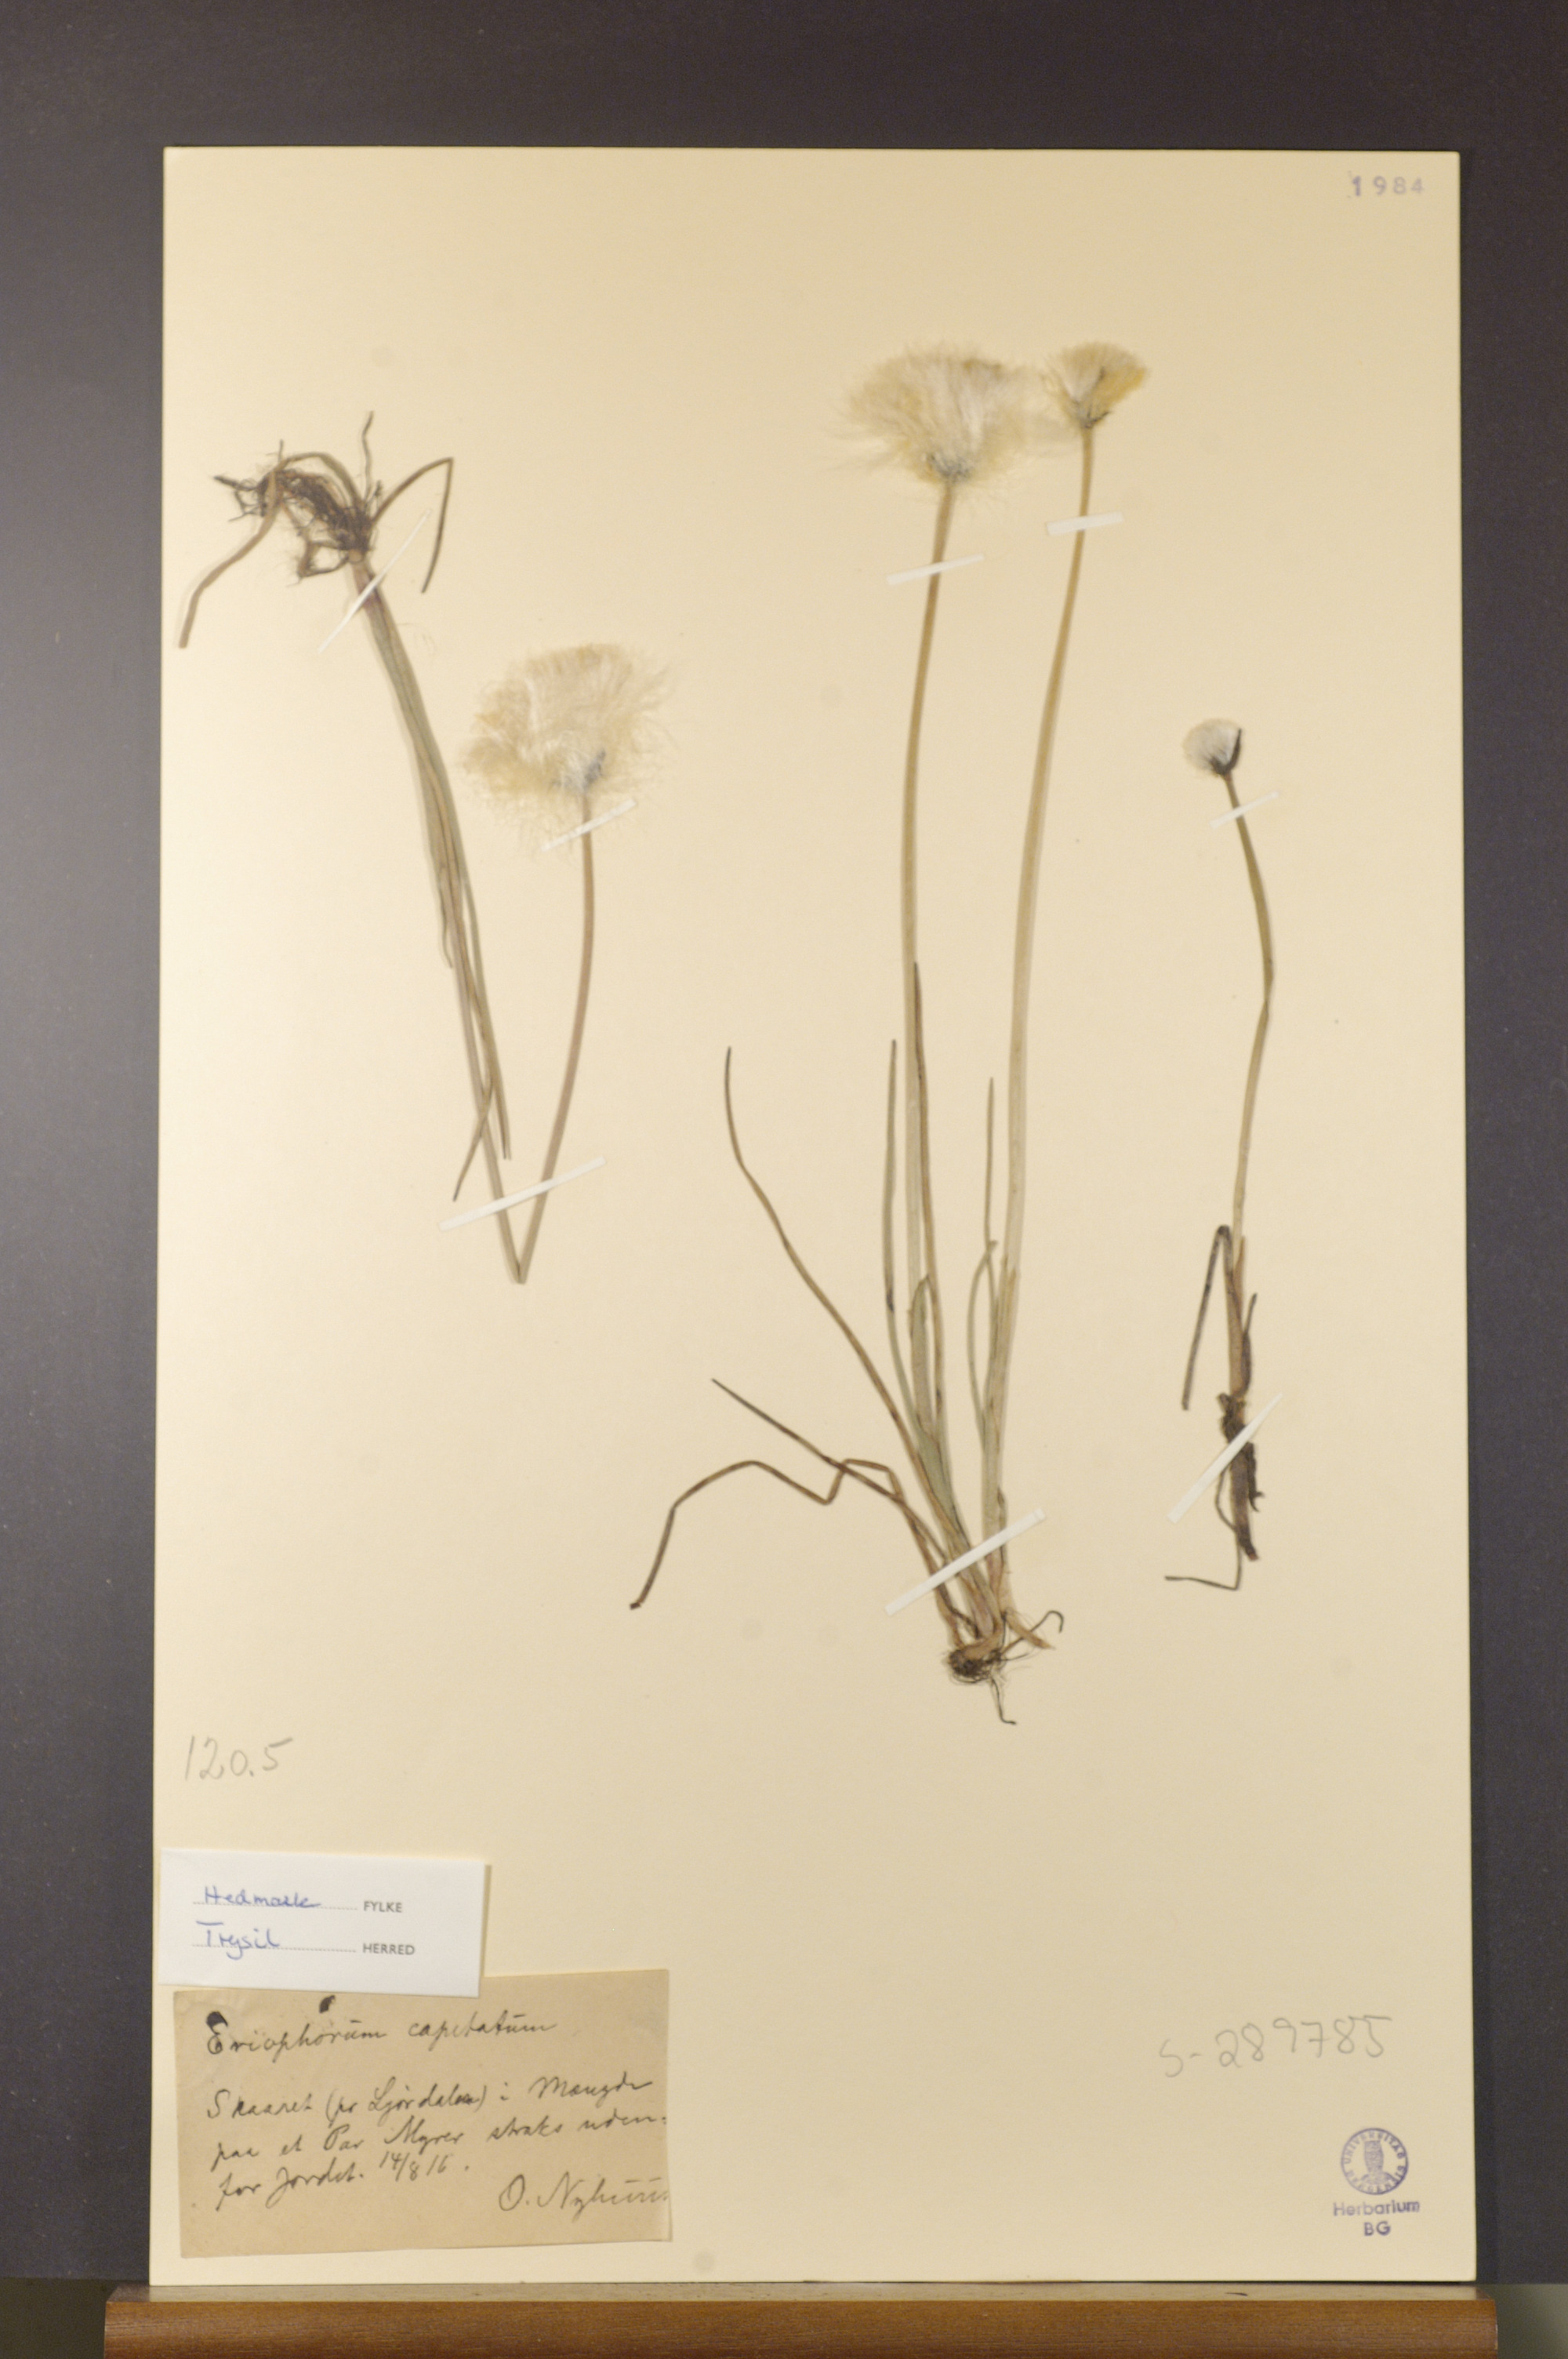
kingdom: Plantae
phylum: Tracheophyta
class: Liliopsida
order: Poales
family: Cyperaceae
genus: Eriophorum
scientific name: Eriophorum scheuchzeri
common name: Scheuchzer's cottongrass
